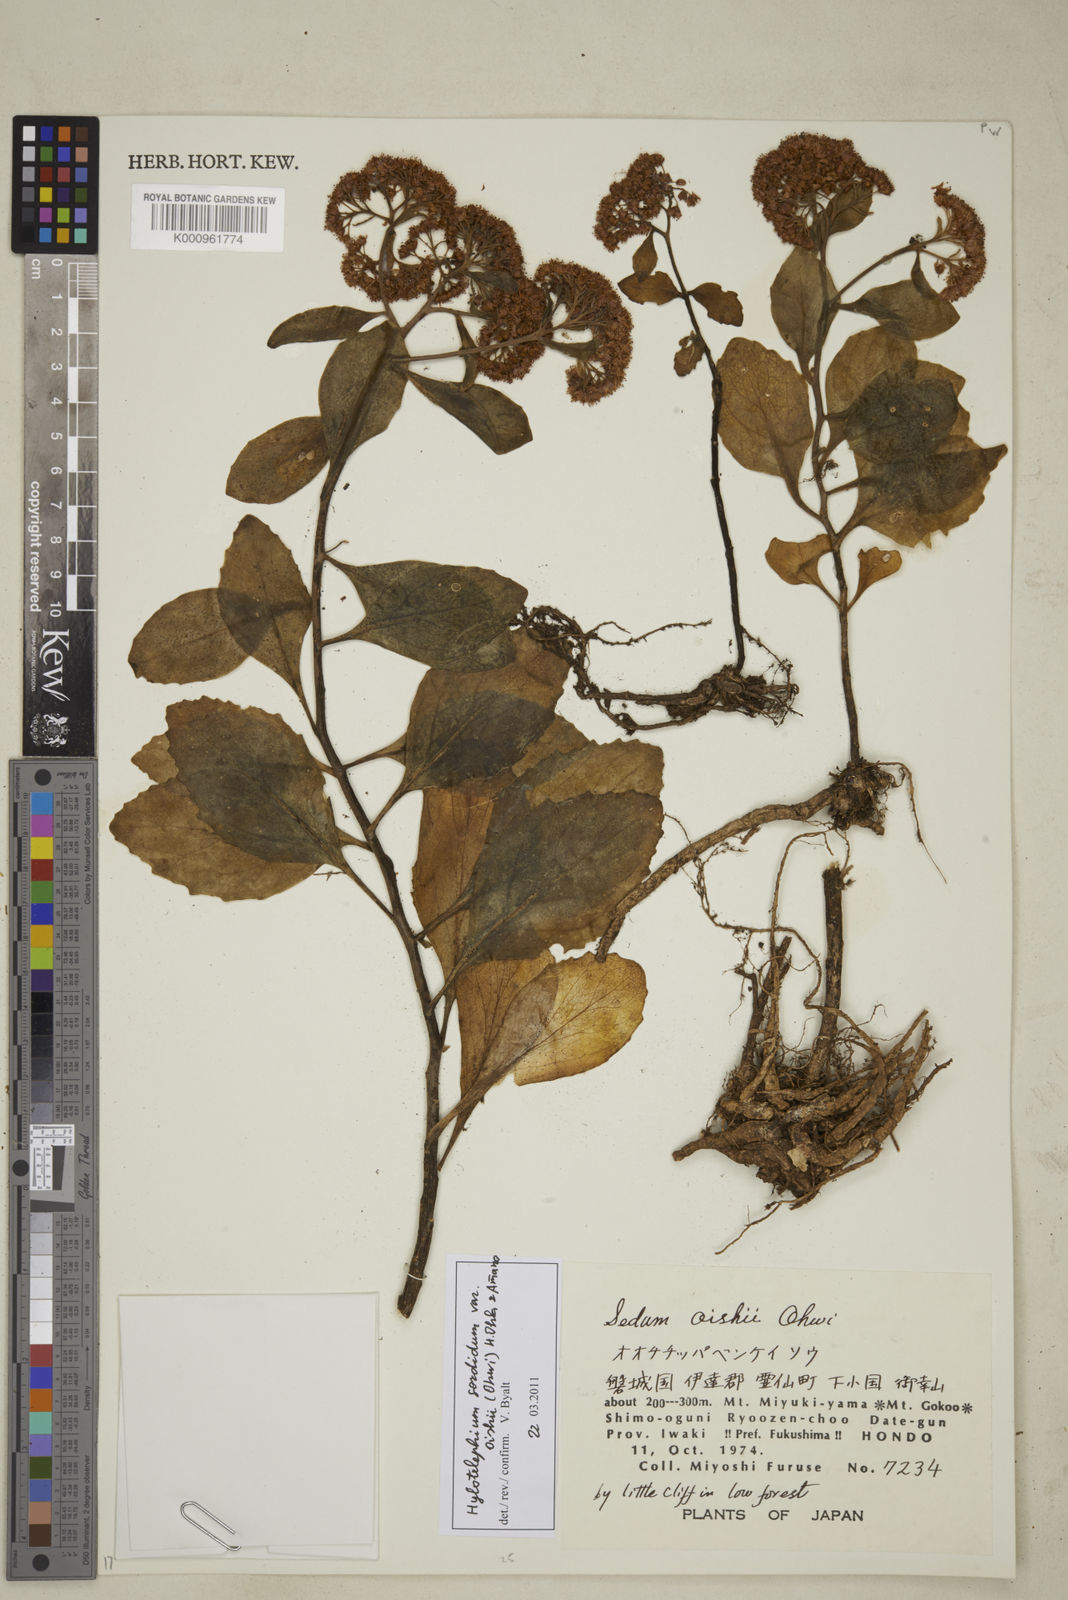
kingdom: Plantae
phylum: Tracheophyta
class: Magnoliopsida
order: Saxifragales
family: Crassulaceae
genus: Hylotelephium
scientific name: Hylotelephium sordidum
